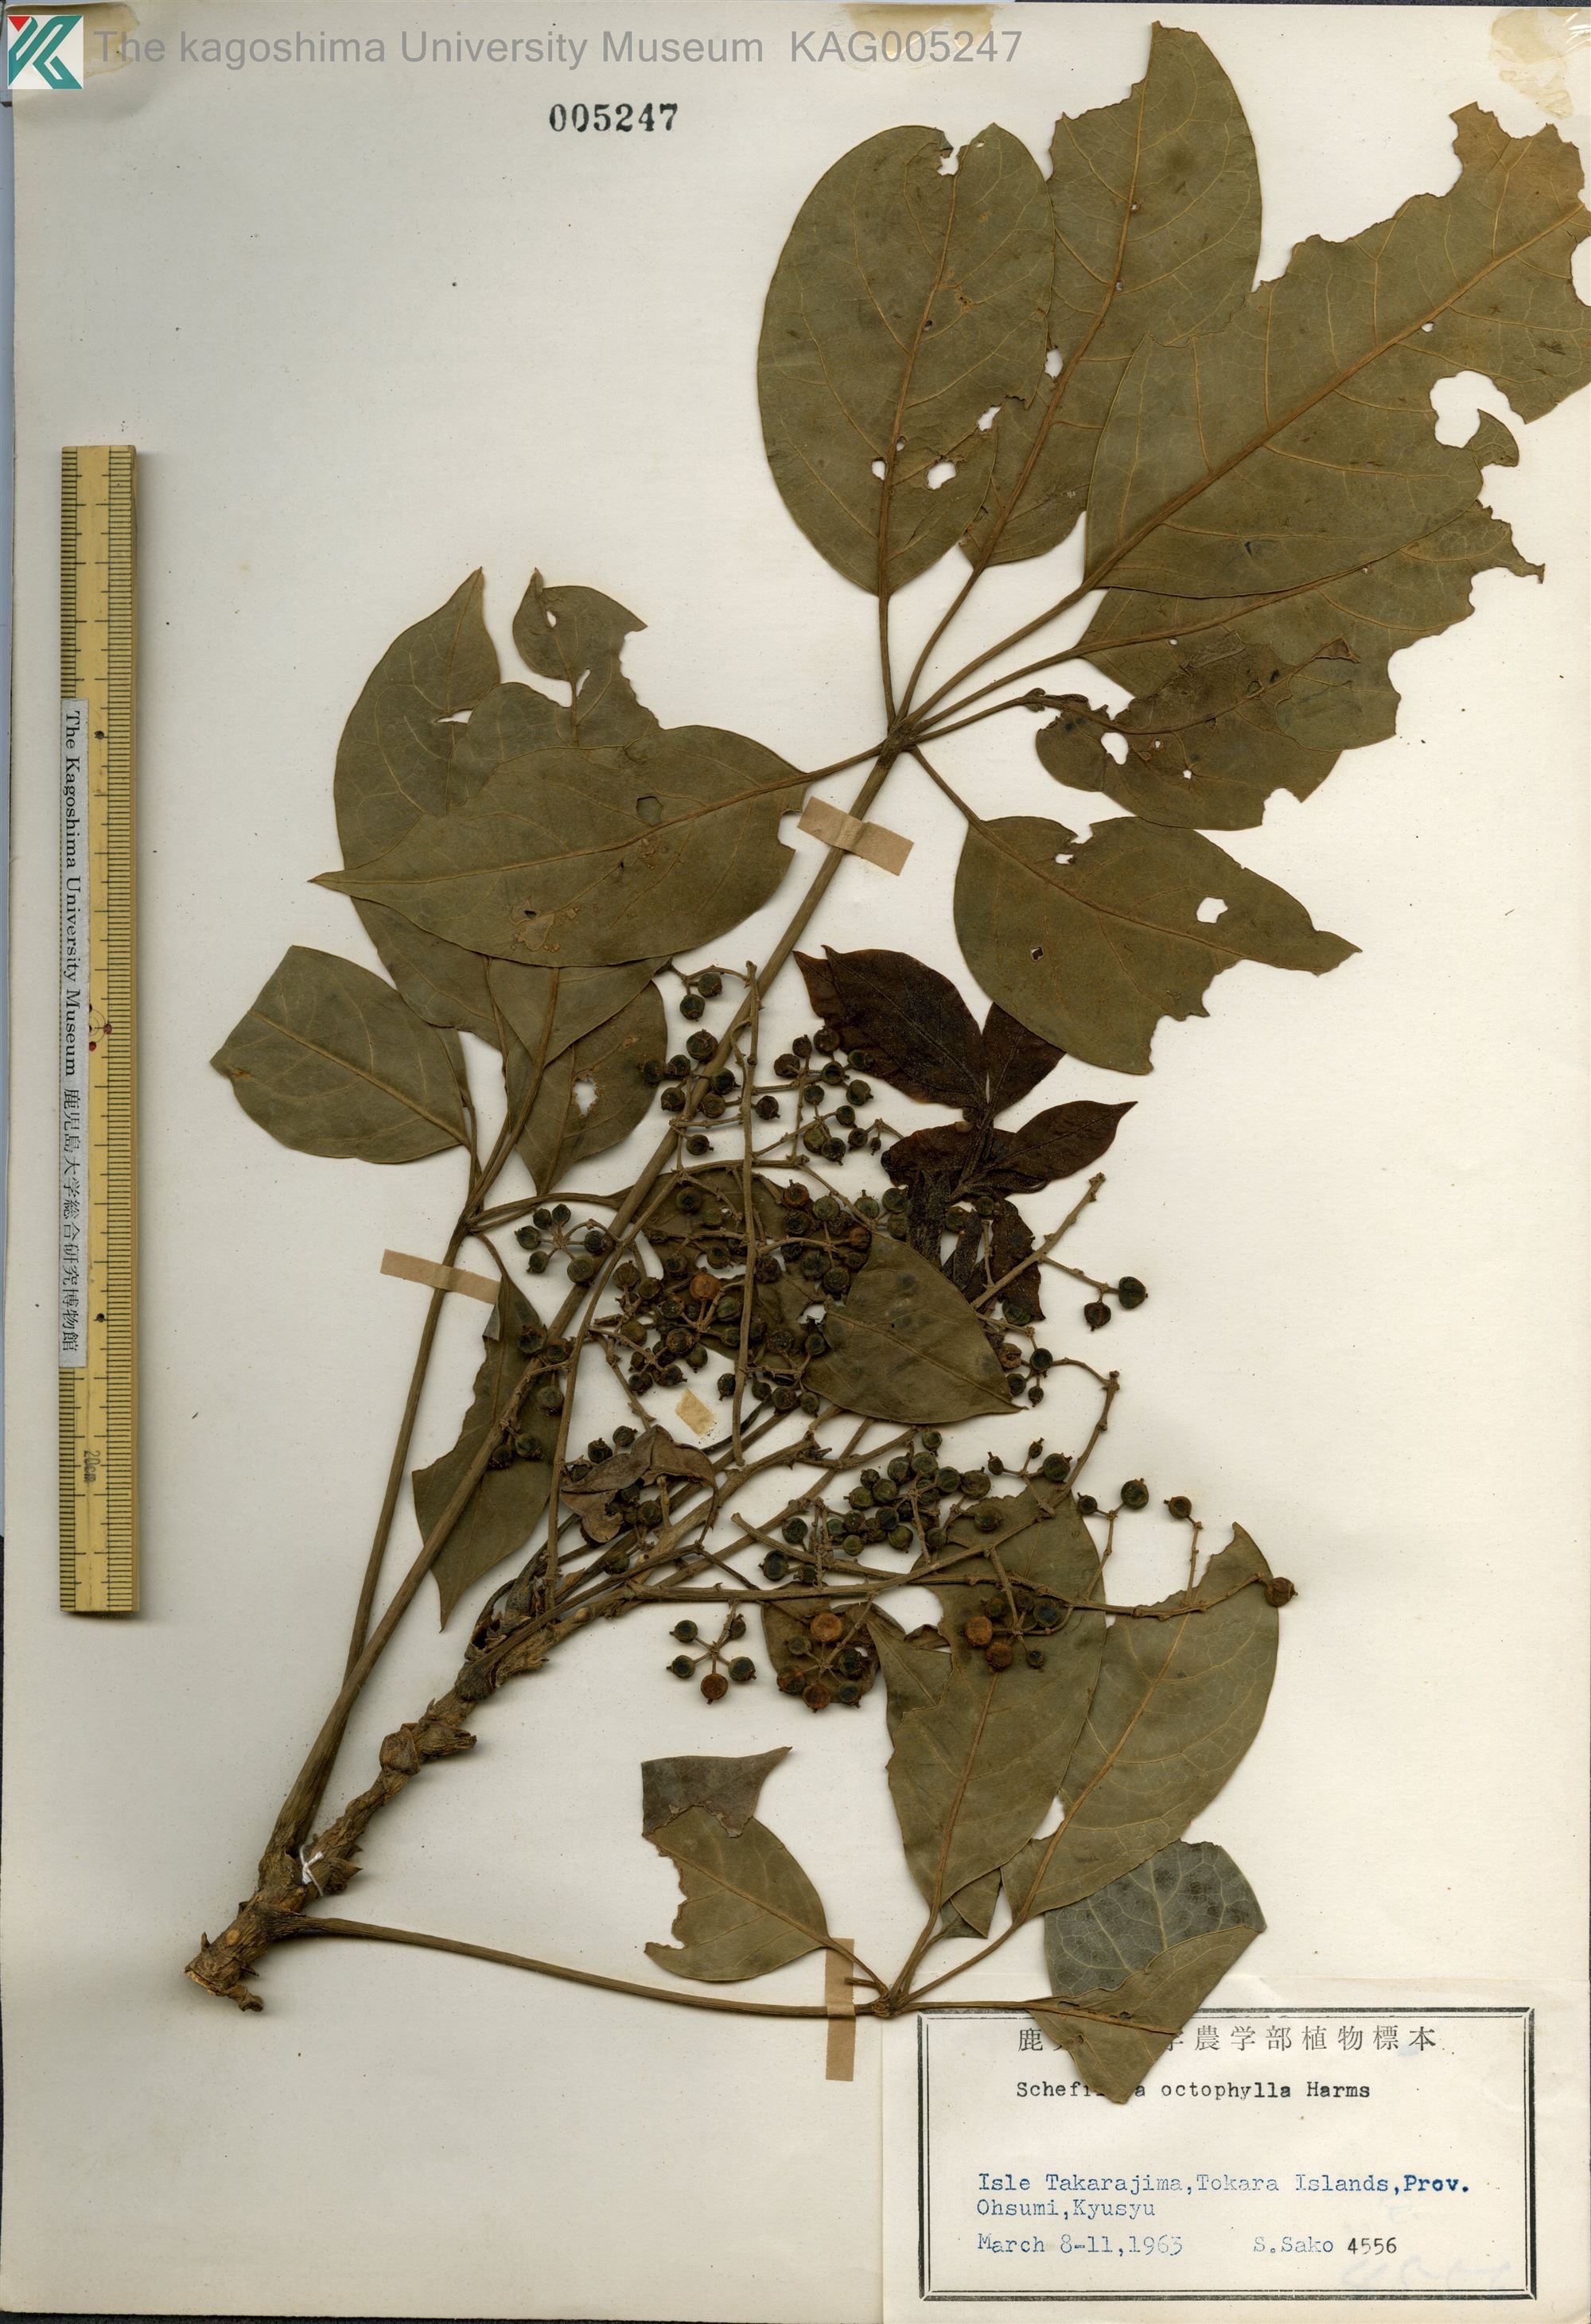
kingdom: Plantae
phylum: Tracheophyta
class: Magnoliopsida
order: Apiales
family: Araliaceae
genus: Heptapleurum
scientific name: Heptapleurum heptaphyllum
